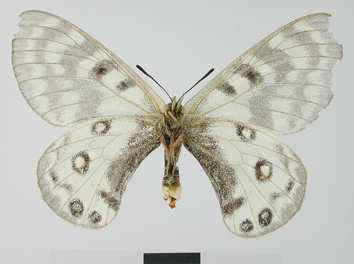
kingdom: Animalia
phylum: Arthropoda
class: Insecta
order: Lepidoptera
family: Papilionidae
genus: Parnassius
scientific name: Parnassius staudingeri
